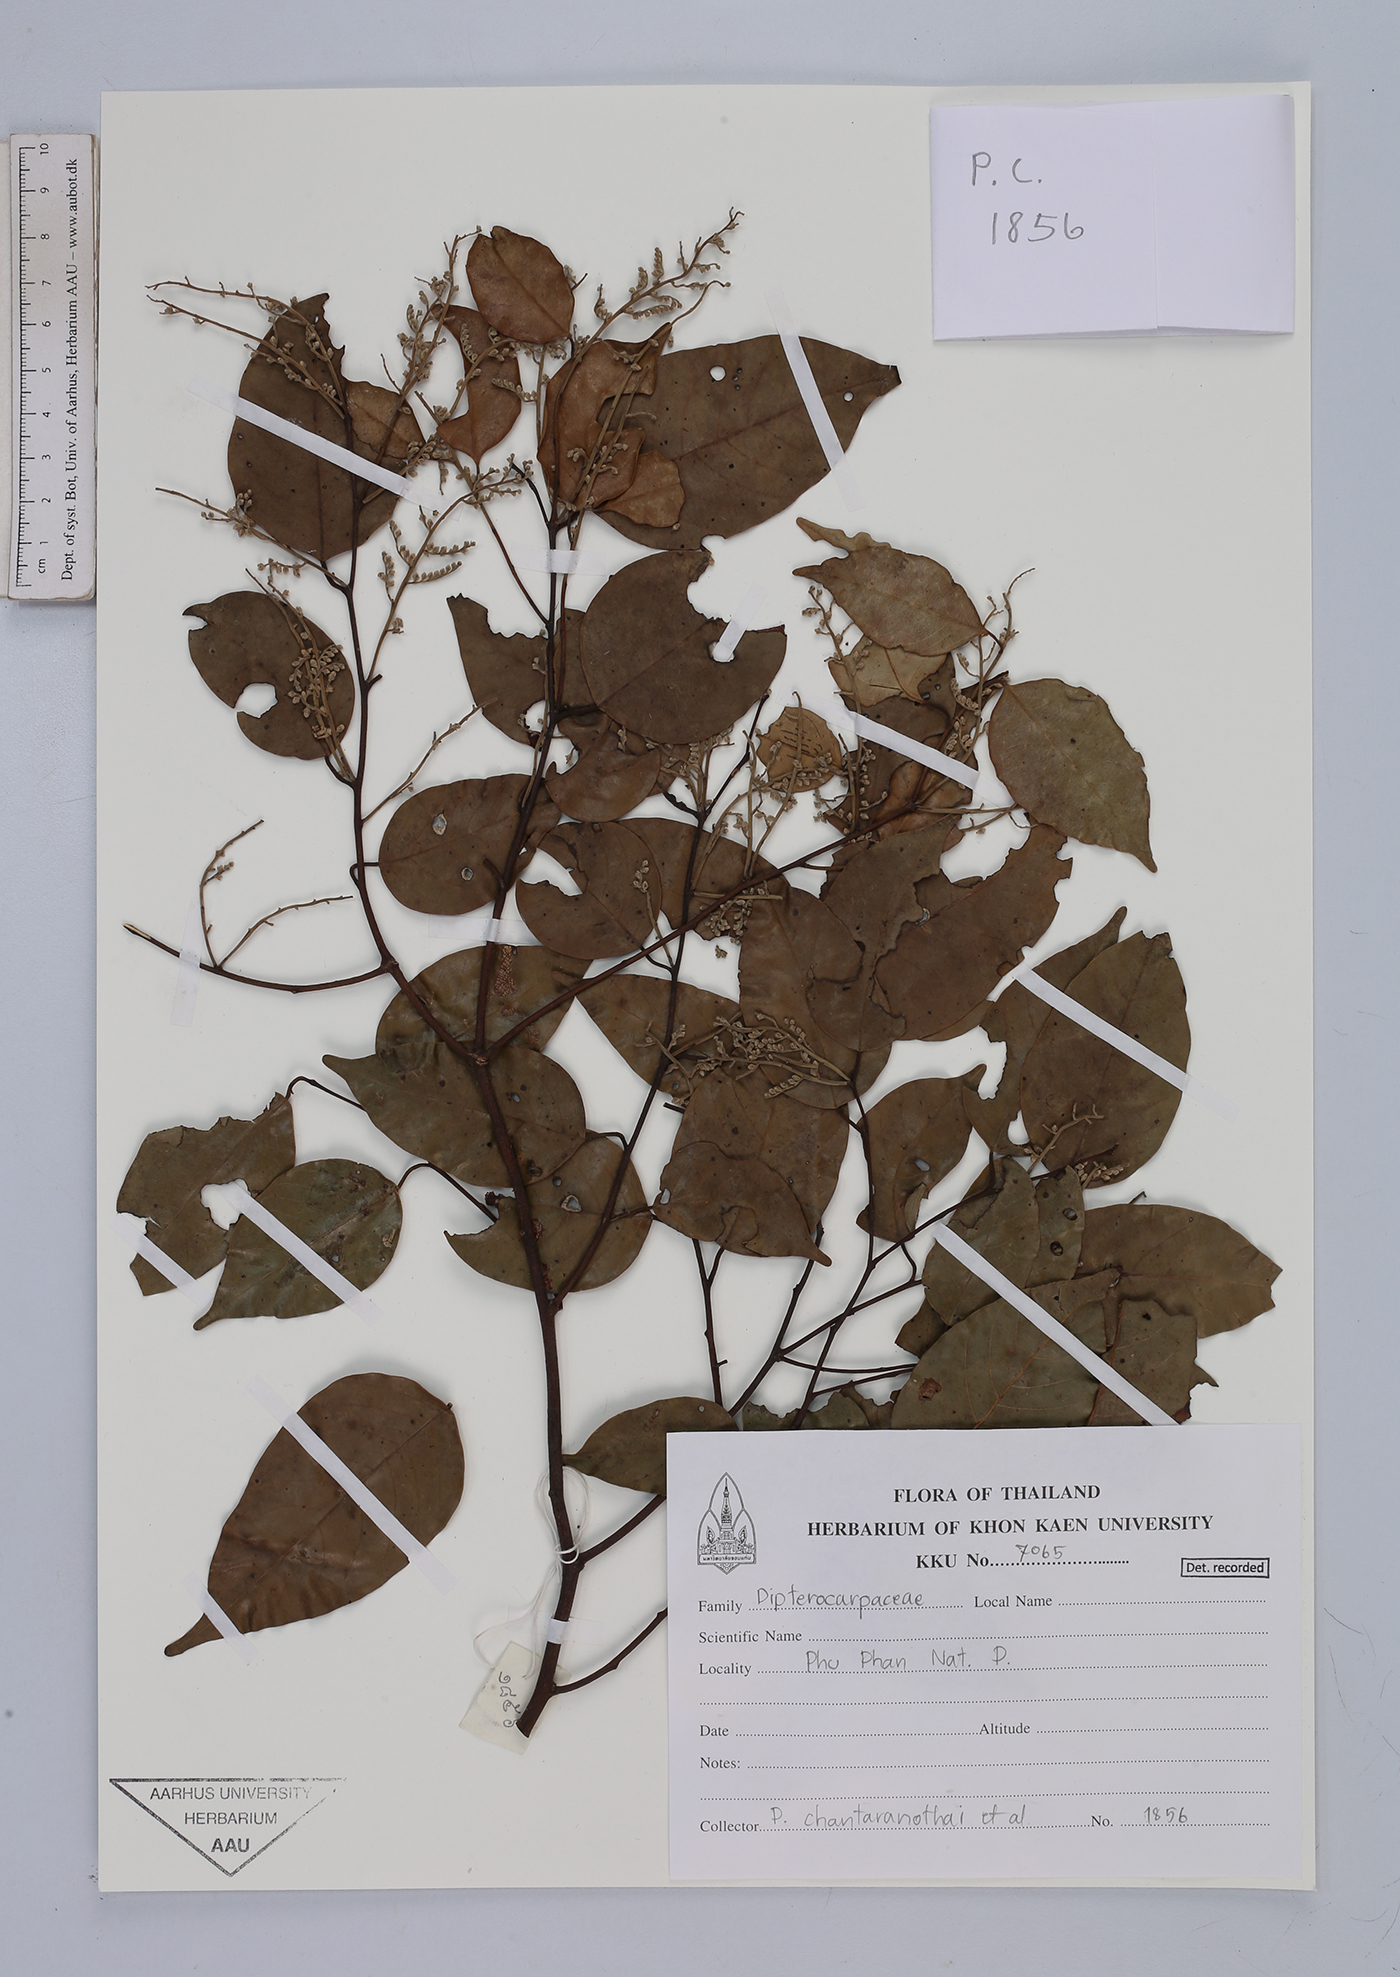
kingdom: Plantae
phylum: Tracheophyta
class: Magnoliopsida
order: Malvales
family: Dipterocarpaceae
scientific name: Dipterocarpaceae
